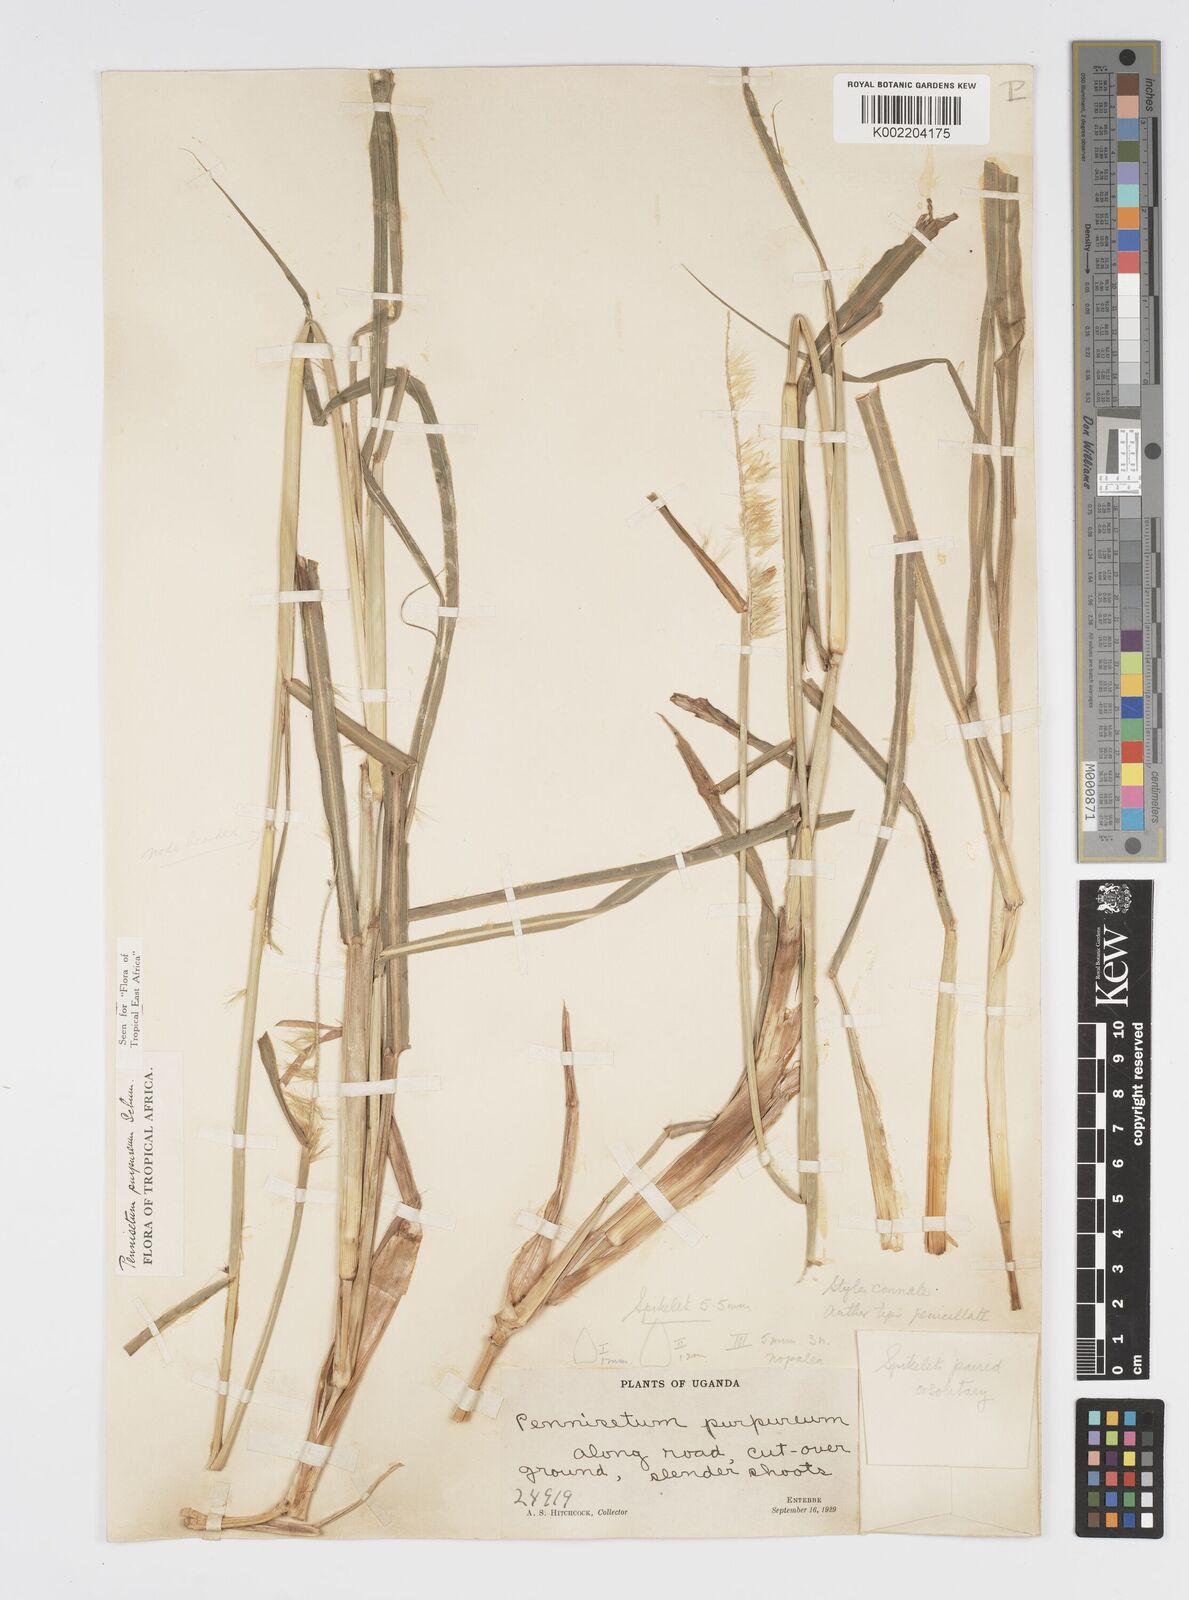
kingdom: Plantae
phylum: Tracheophyta
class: Liliopsida
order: Poales
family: Poaceae
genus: Cenchrus
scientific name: Cenchrus purpureus
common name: Elephant grass
